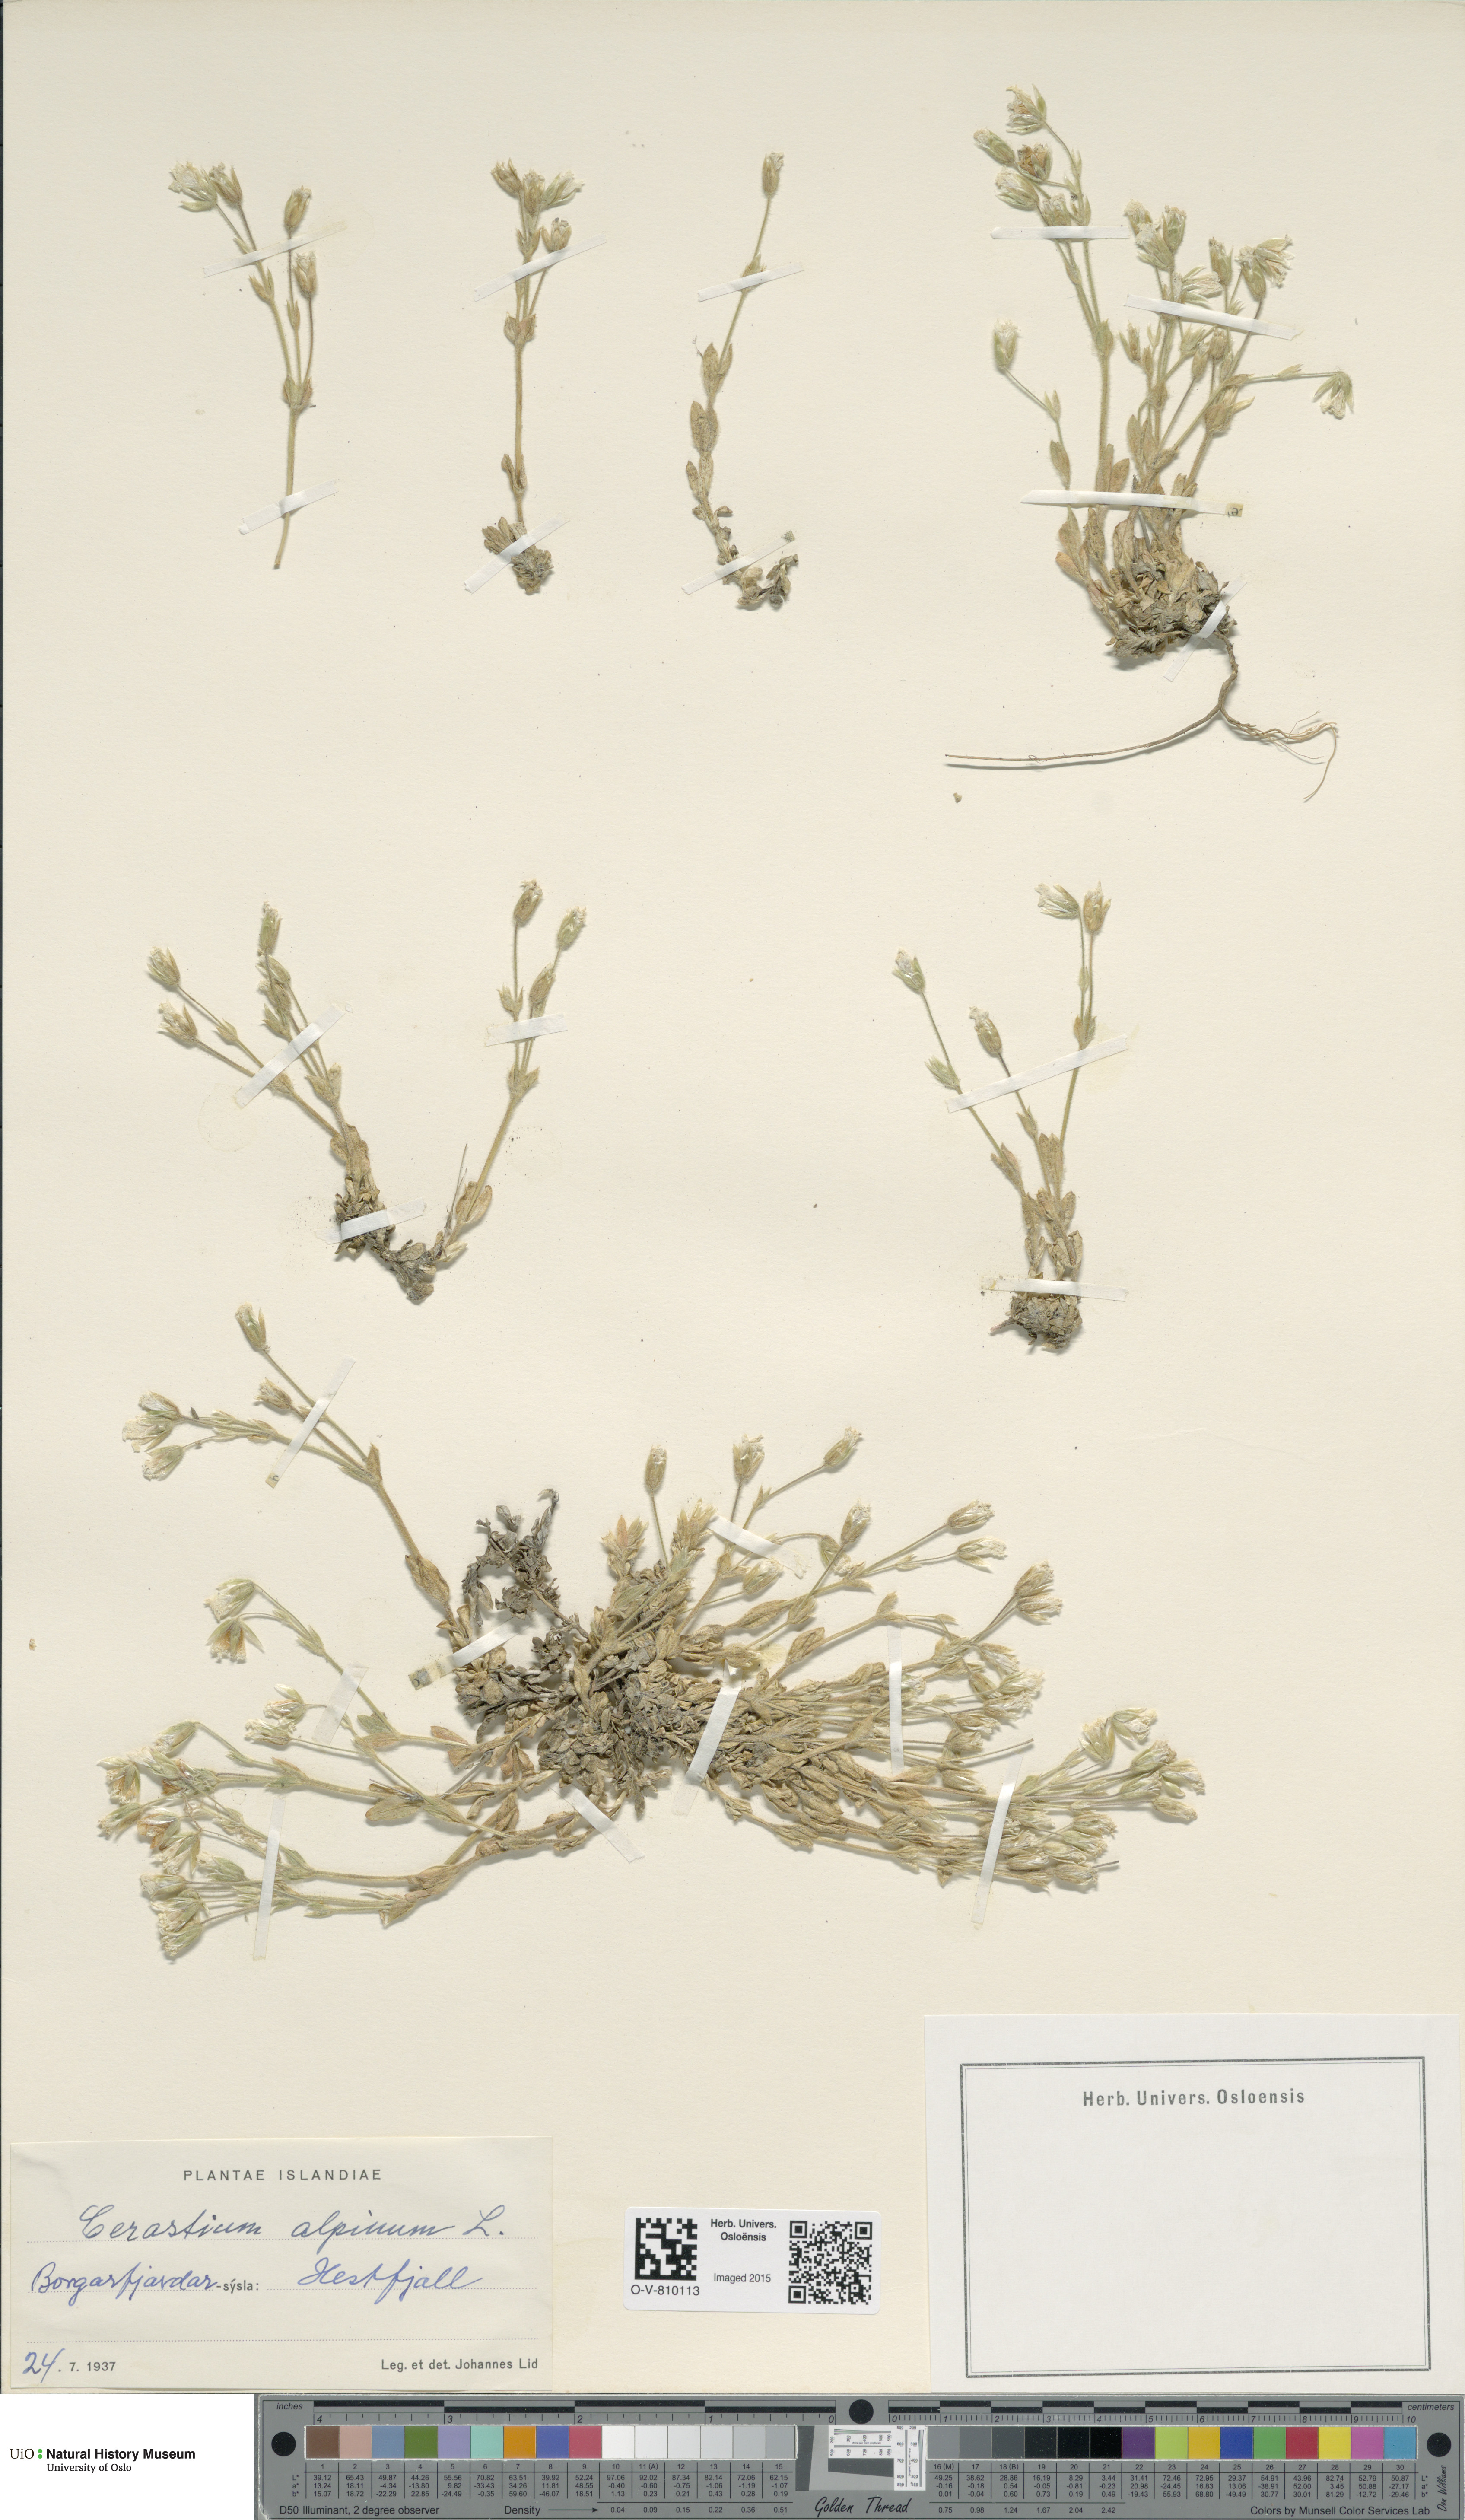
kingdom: Plantae
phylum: Tracheophyta
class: Magnoliopsida
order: Caryophyllales
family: Caryophyllaceae
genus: Cerastium
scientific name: Cerastium alpinum
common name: Alpine mouse-ear
